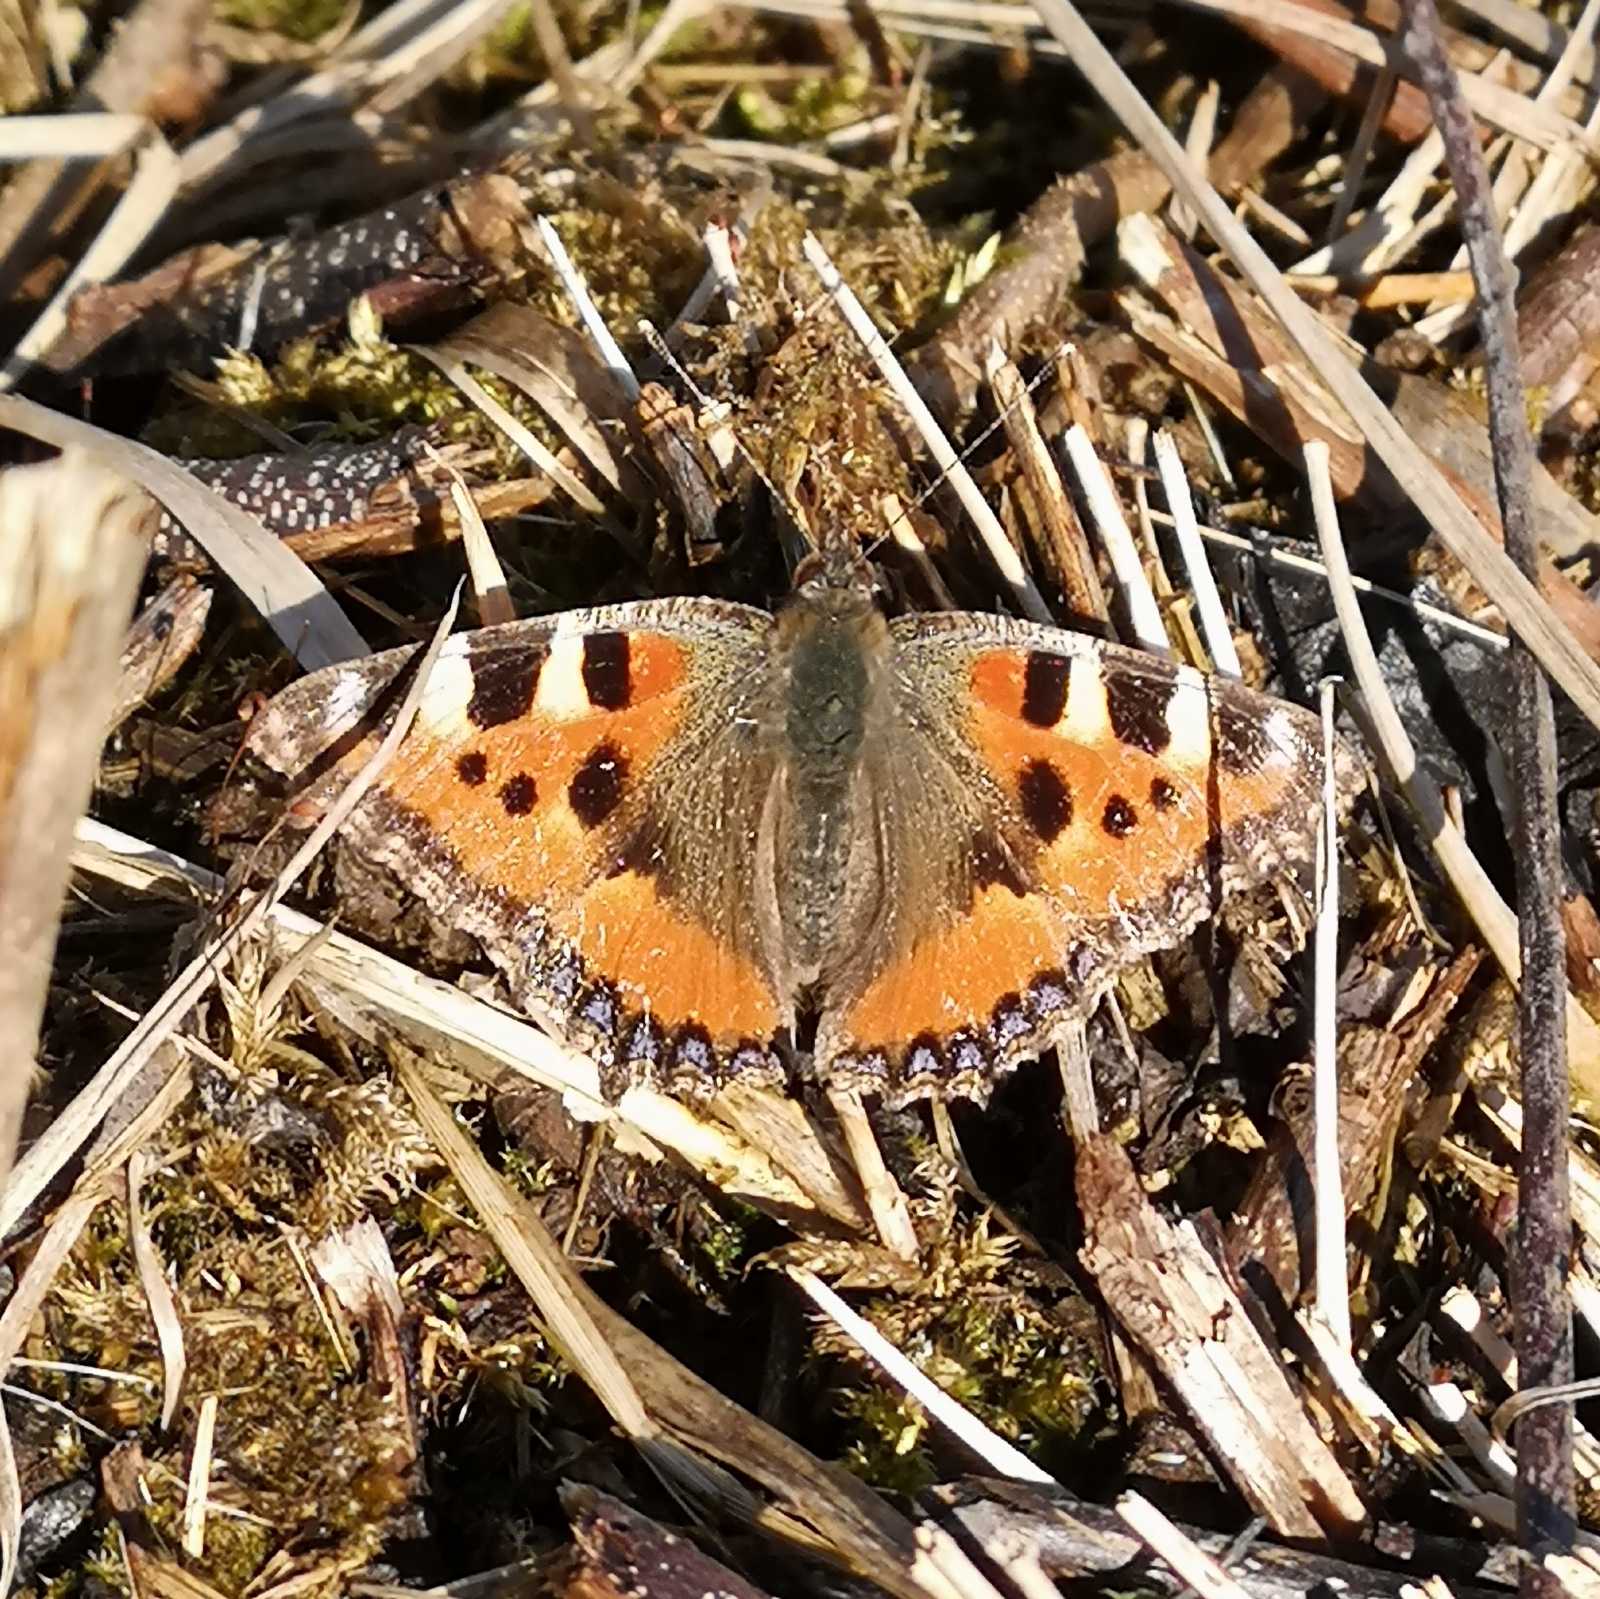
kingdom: Animalia
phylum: Arthropoda
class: Insecta
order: Lepidoptera
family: Nymphalidae
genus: Aglais
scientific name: Aglais urticae
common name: Nældens takvinge
